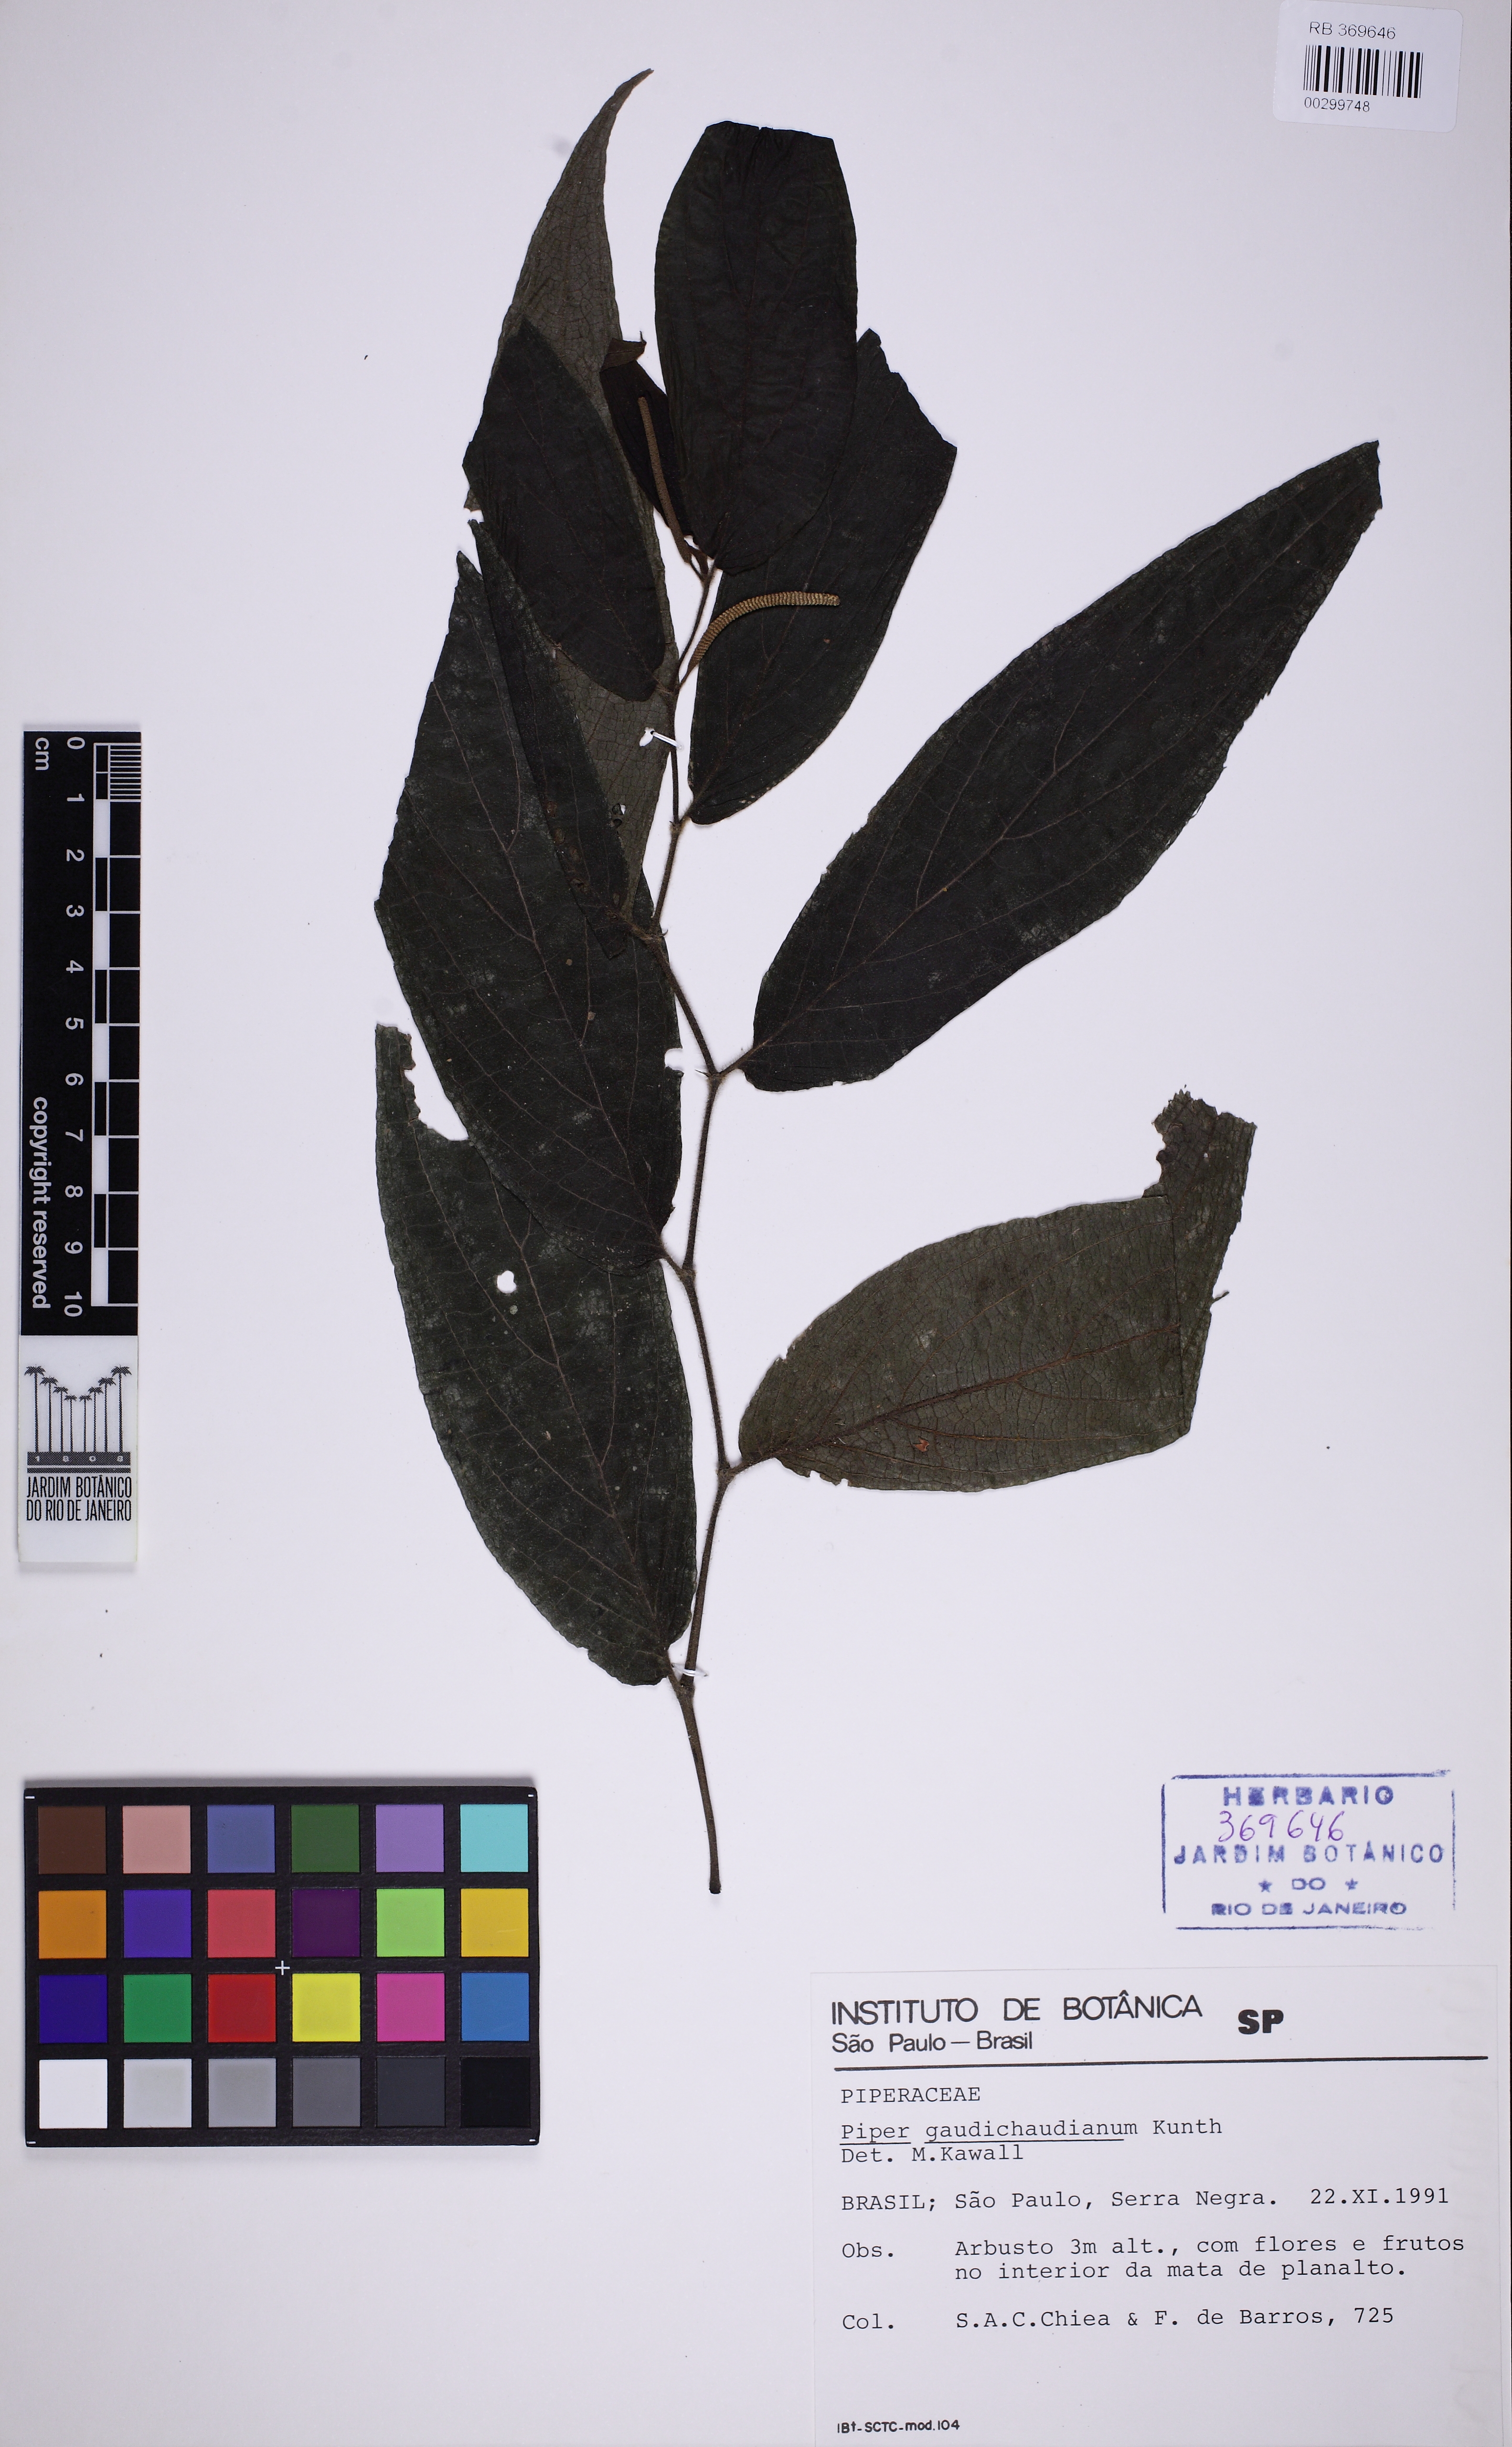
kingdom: Plantae
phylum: Tracheophyta
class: Magnoliopsida
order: Piperales
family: Piperaceae
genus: Piper
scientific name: Piper gaudichaudianum
